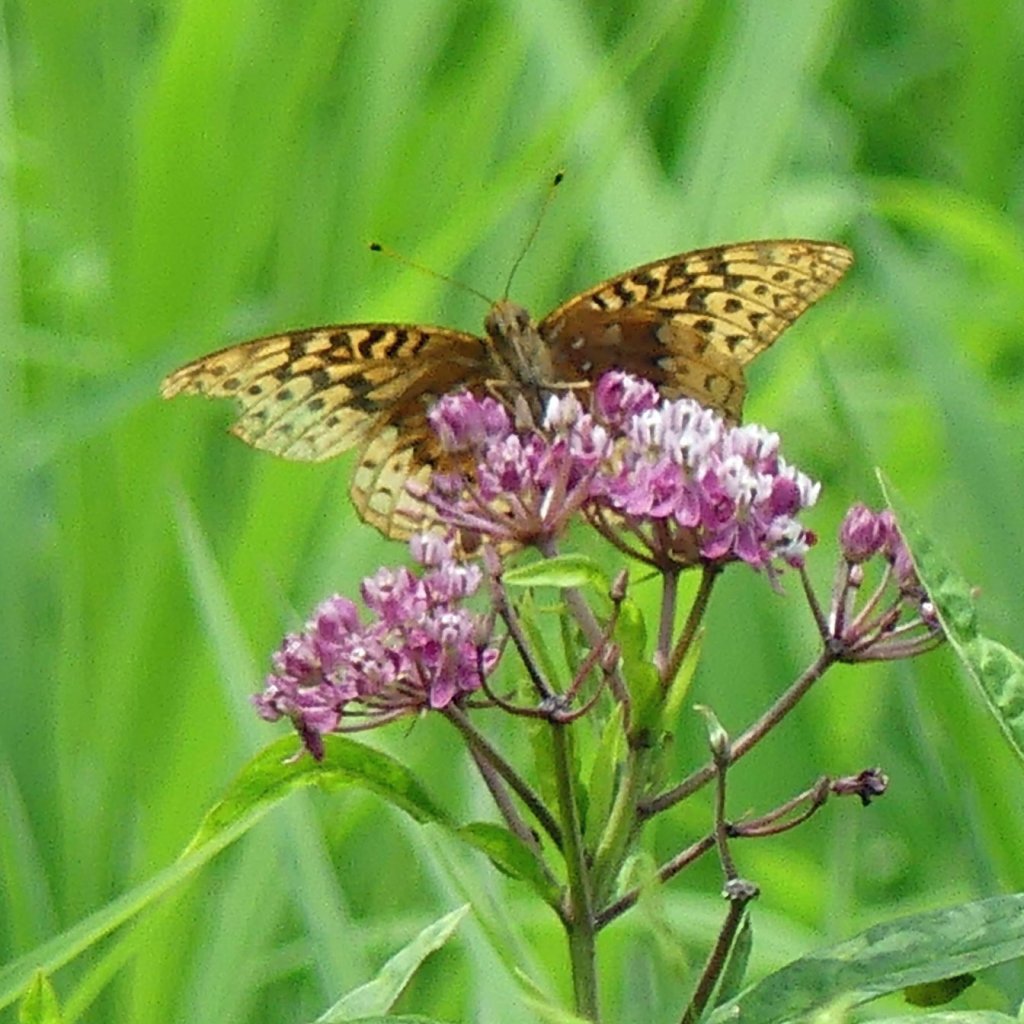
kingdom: Animalia
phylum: Arthropoda
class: Insecta
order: Lepidoptera
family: Nymphalidae
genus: Speyeria
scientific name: Speyeria cybele
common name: Great Spangled Fritillary
